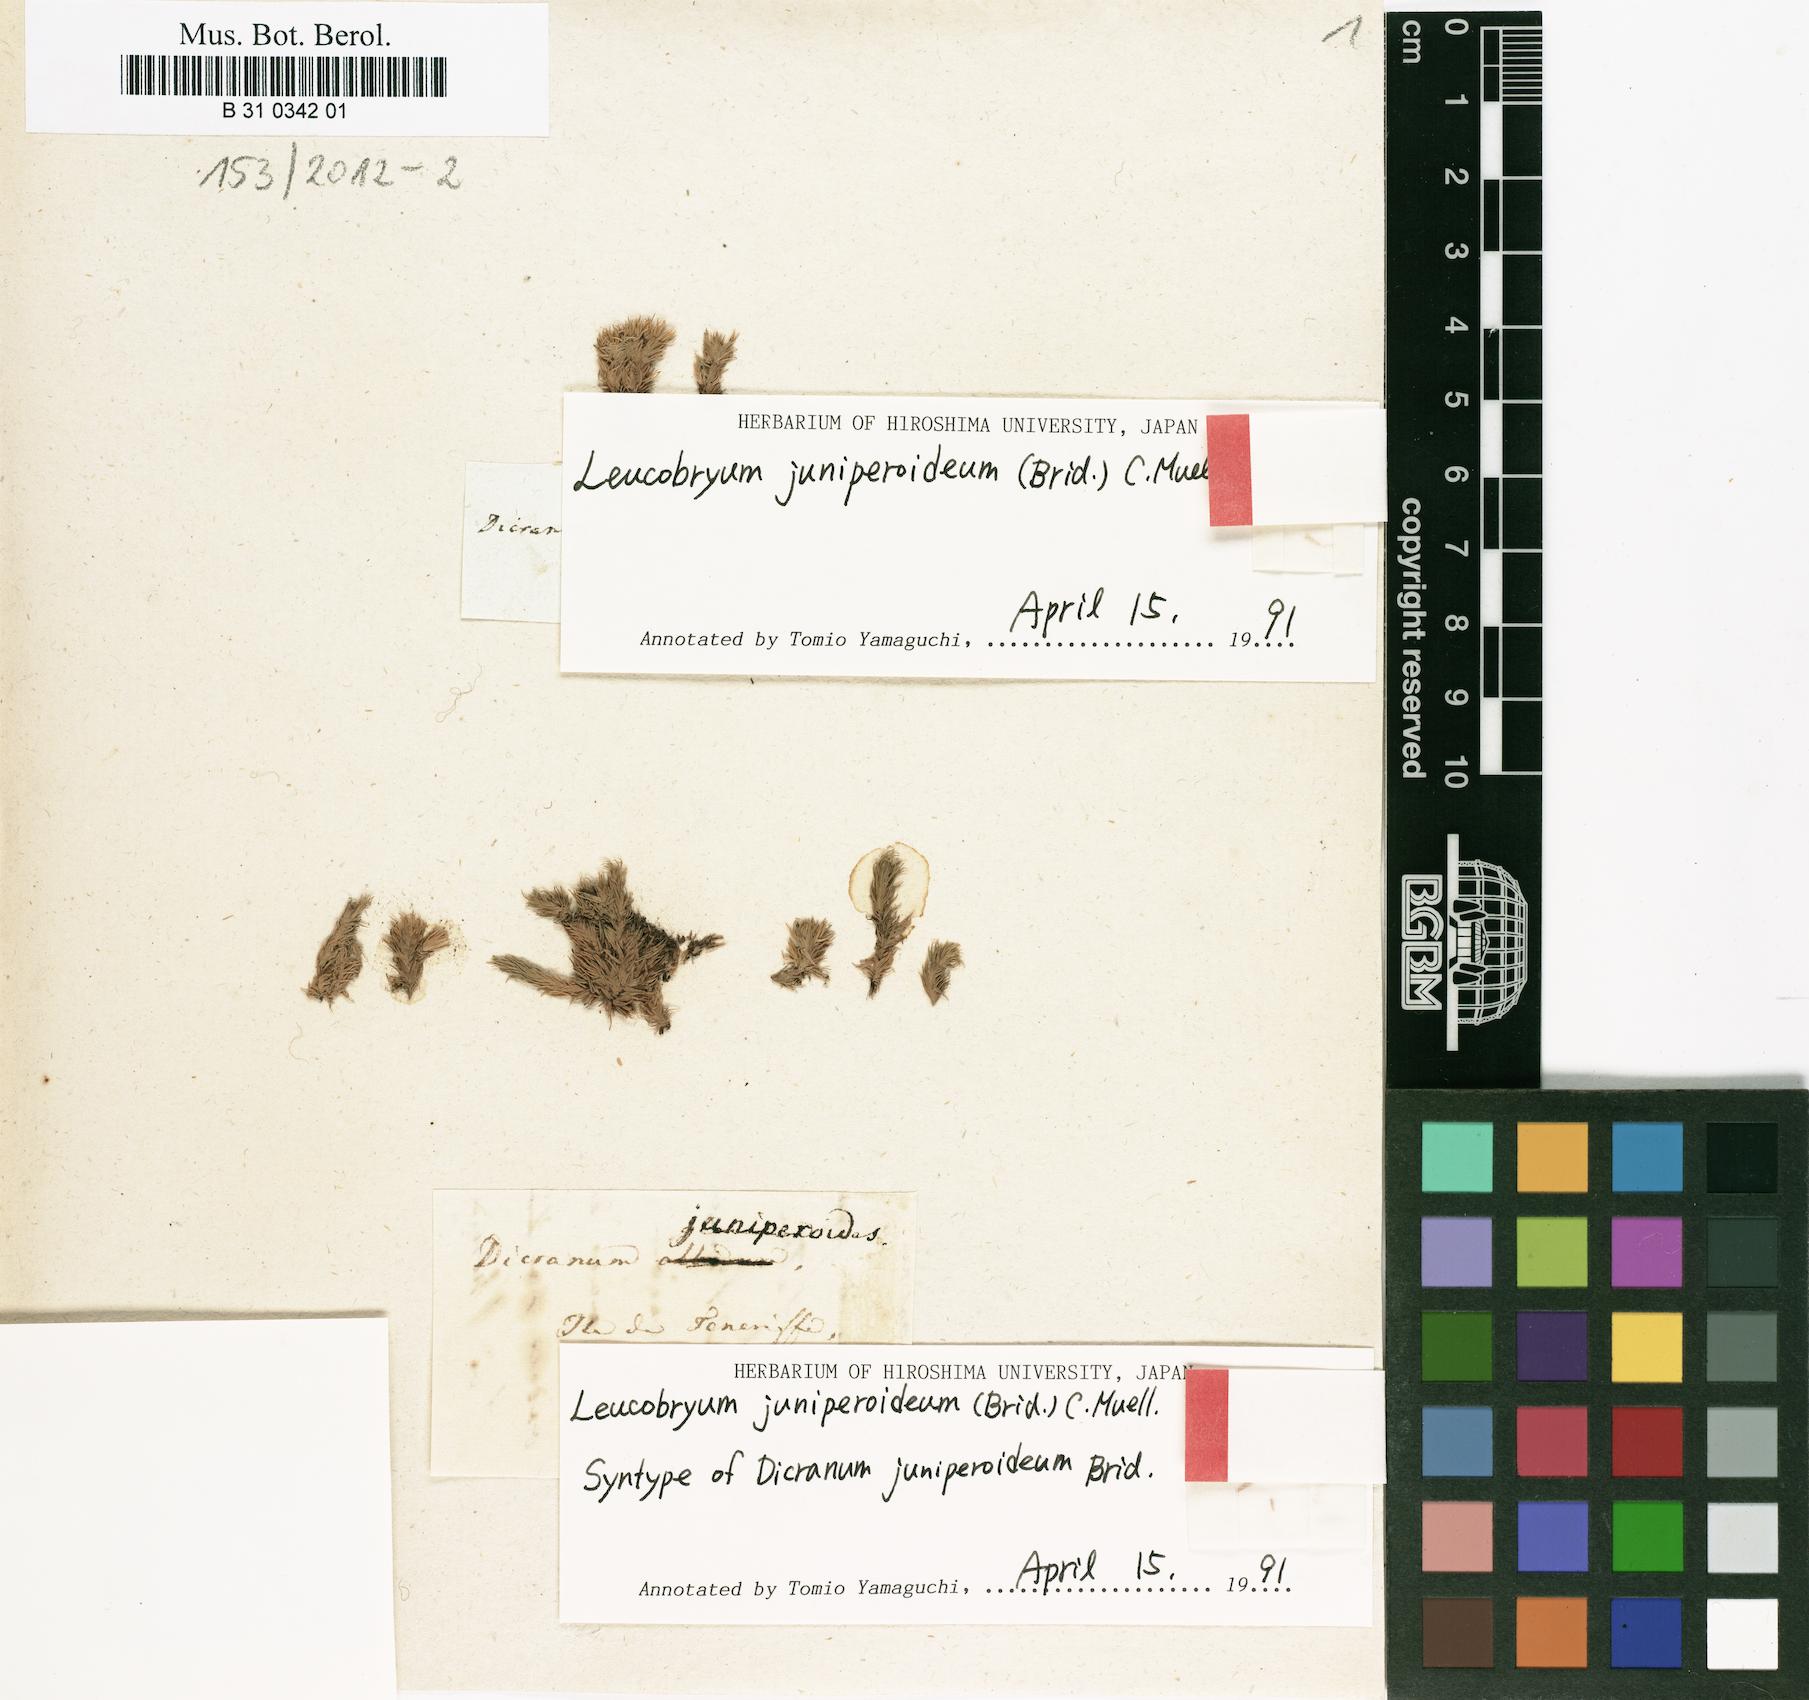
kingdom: Plantae
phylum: Bryophyta
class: Bryopsida
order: Dicranales
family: Leucobryaceae
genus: Leucobryum
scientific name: Leucobryum juniperoideum
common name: Smaller white-moss
